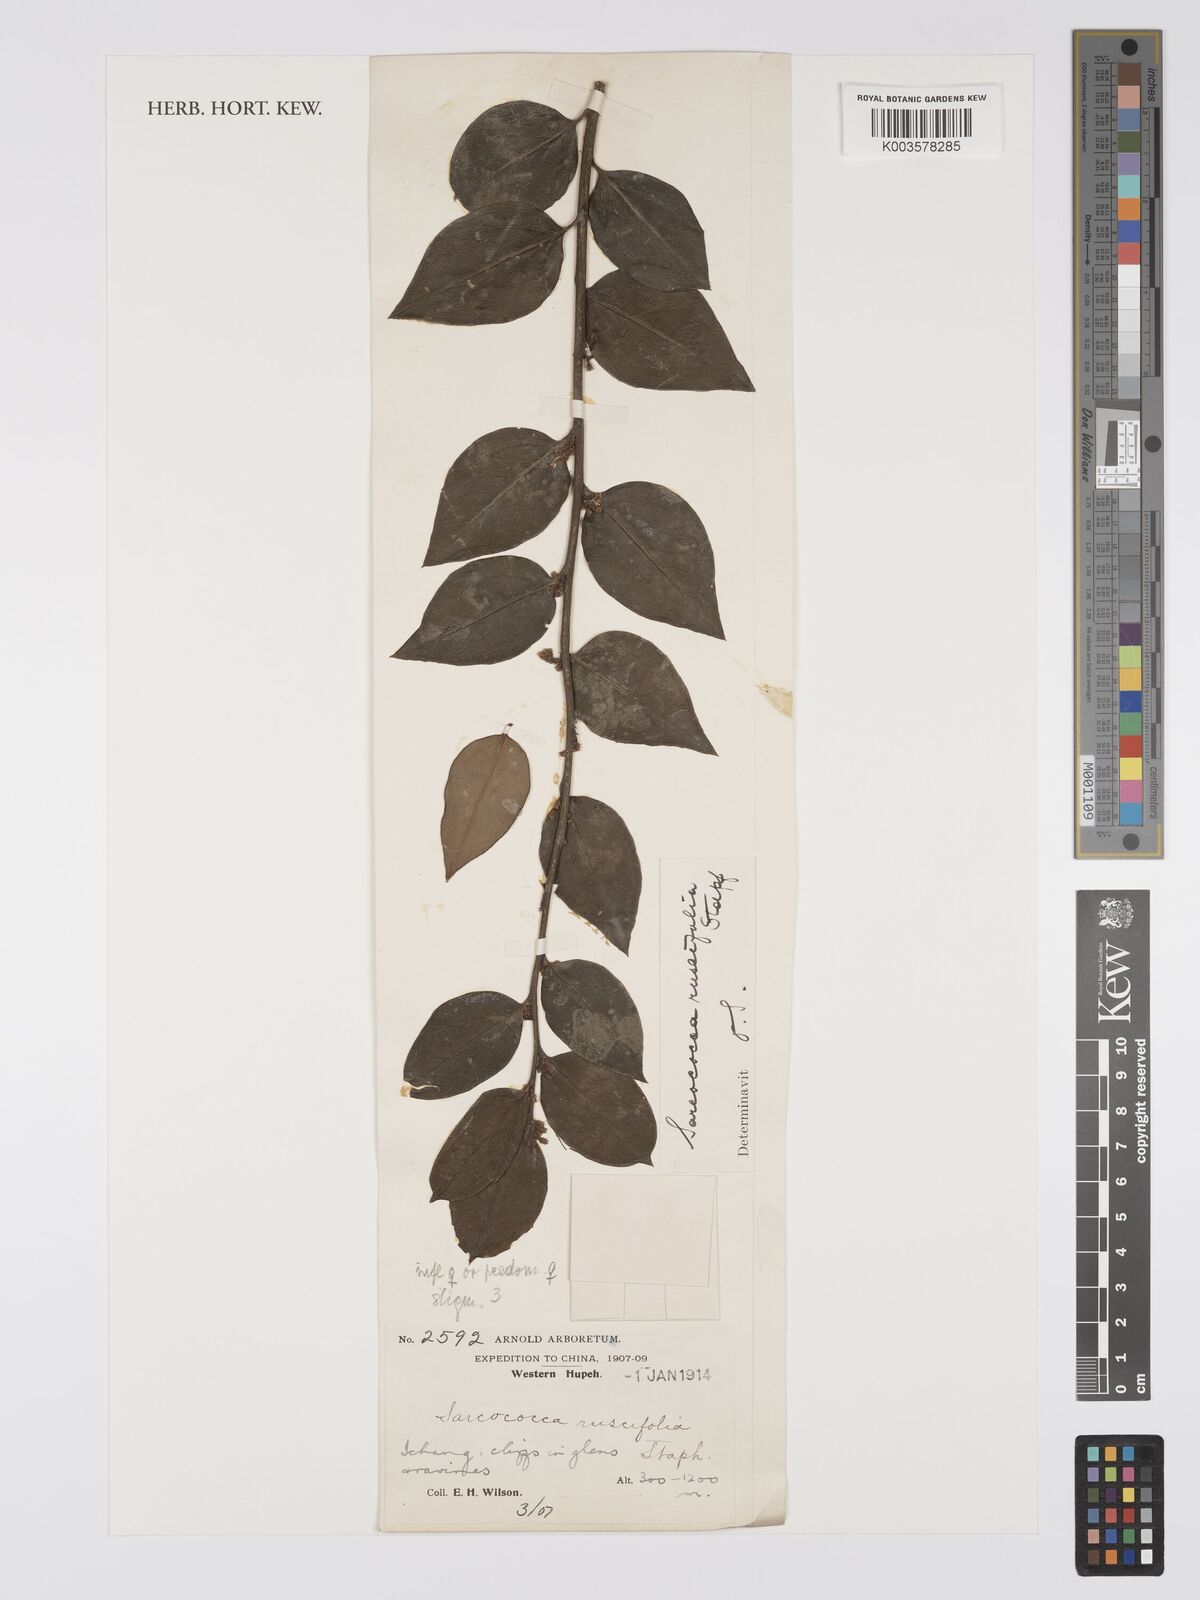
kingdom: Plantae
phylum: Tracheophyta
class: Magnoliopsida
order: Buxales
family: Buxaceae
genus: Sarcococca
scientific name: Sarcococca ruscifolia
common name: Fragrant sweet-box
